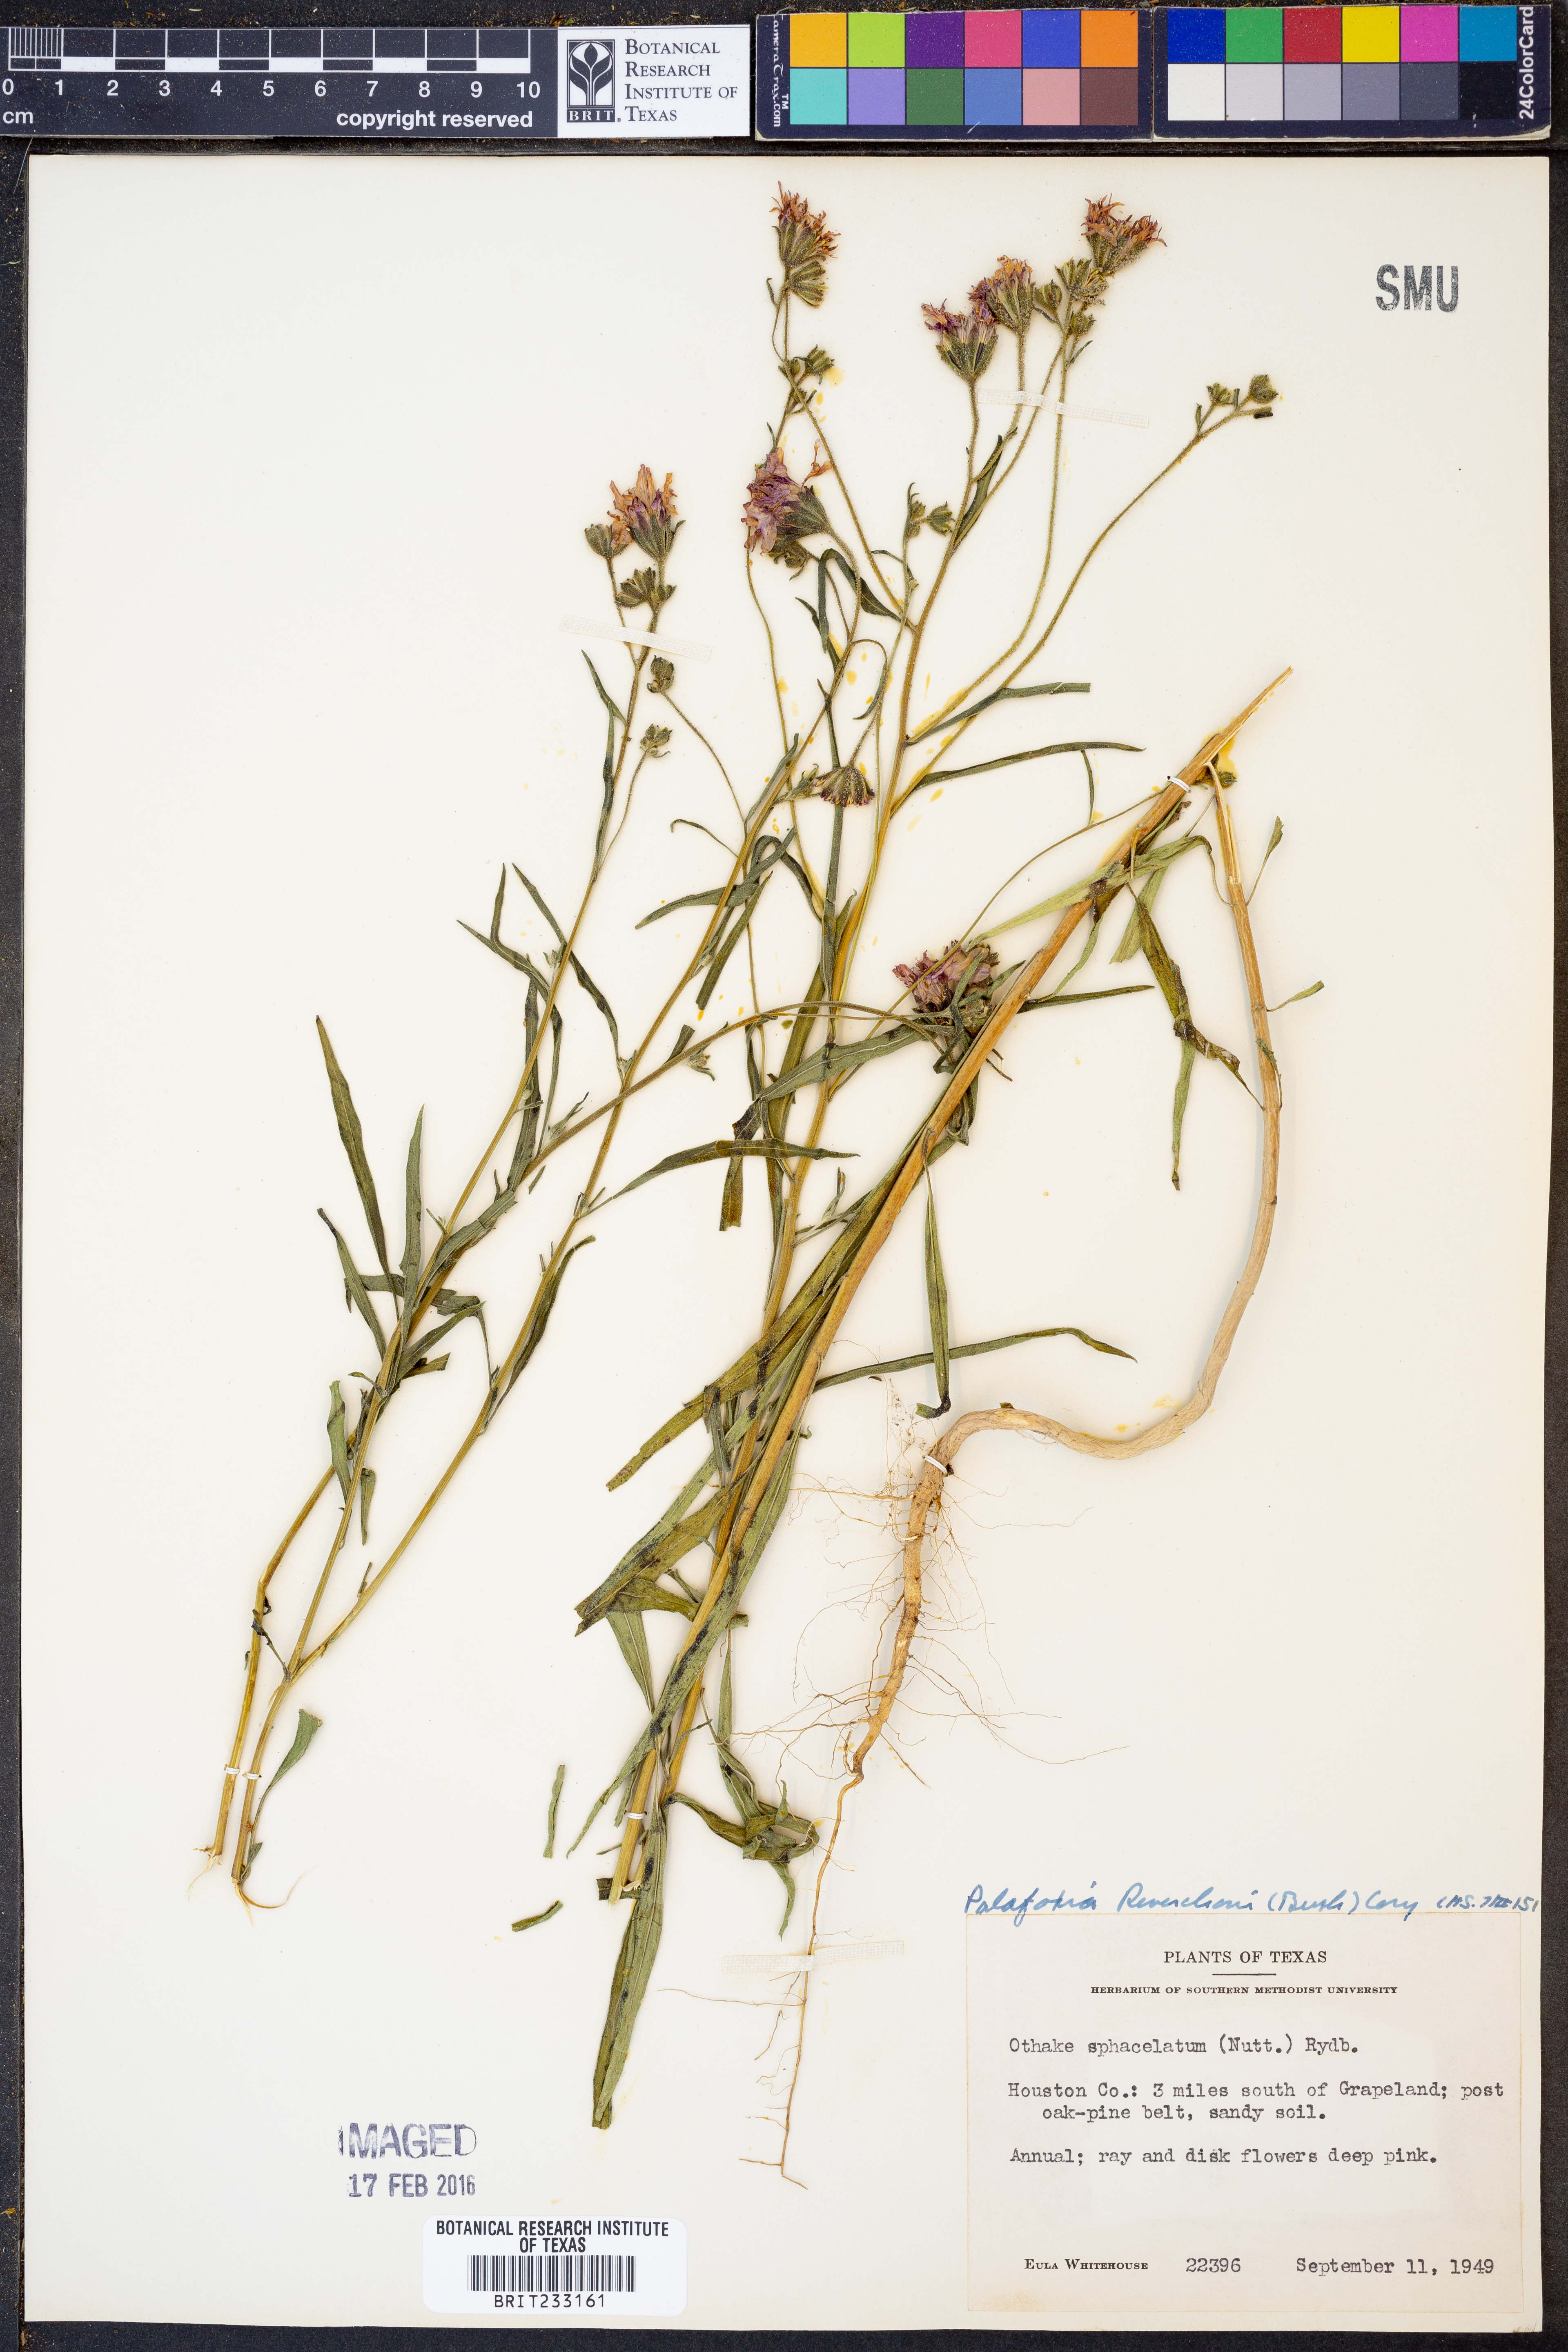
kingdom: Plantae
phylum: Tracheophyta
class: Magnoliopsida
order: Asterales
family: Asteraceae
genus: Palafoxia
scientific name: Palafoxia reverchonii
